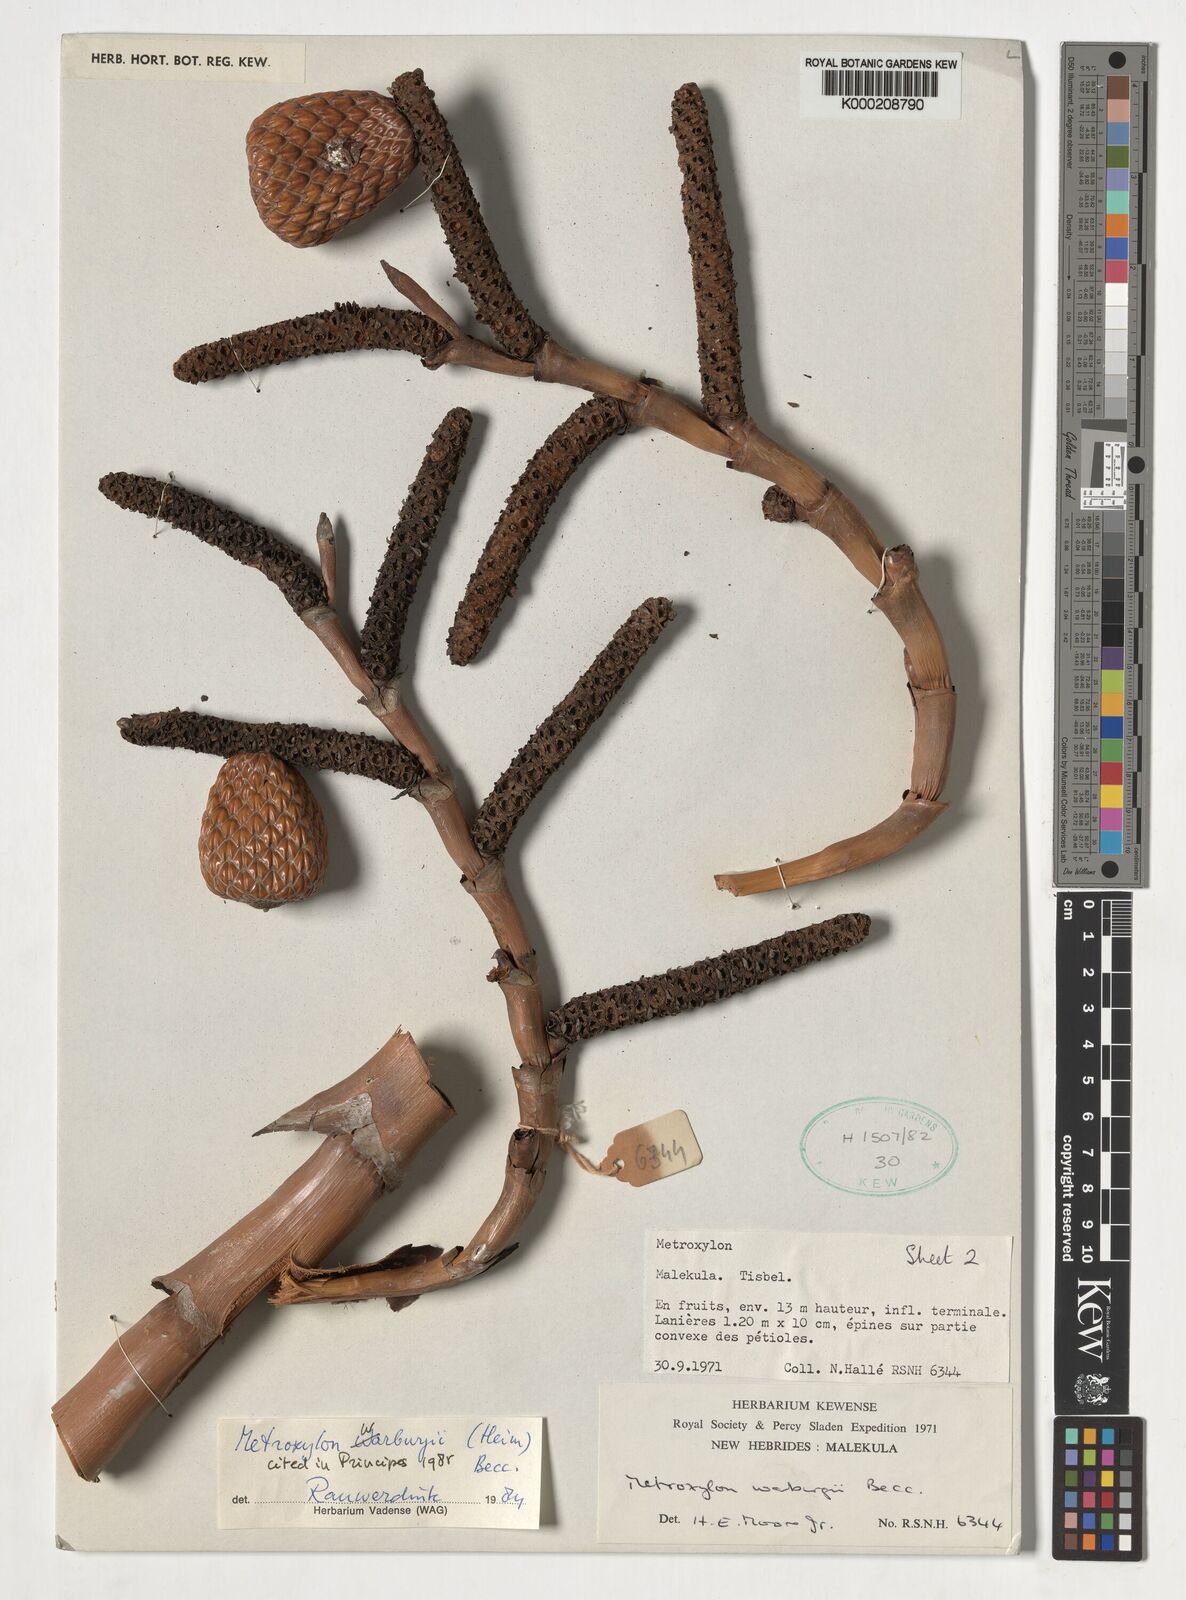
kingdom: Plantae
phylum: Tracheophyta
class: Liliopsida
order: Arecales
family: Arecaceae
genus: Metroxylon
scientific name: Metroxylon warburgii
